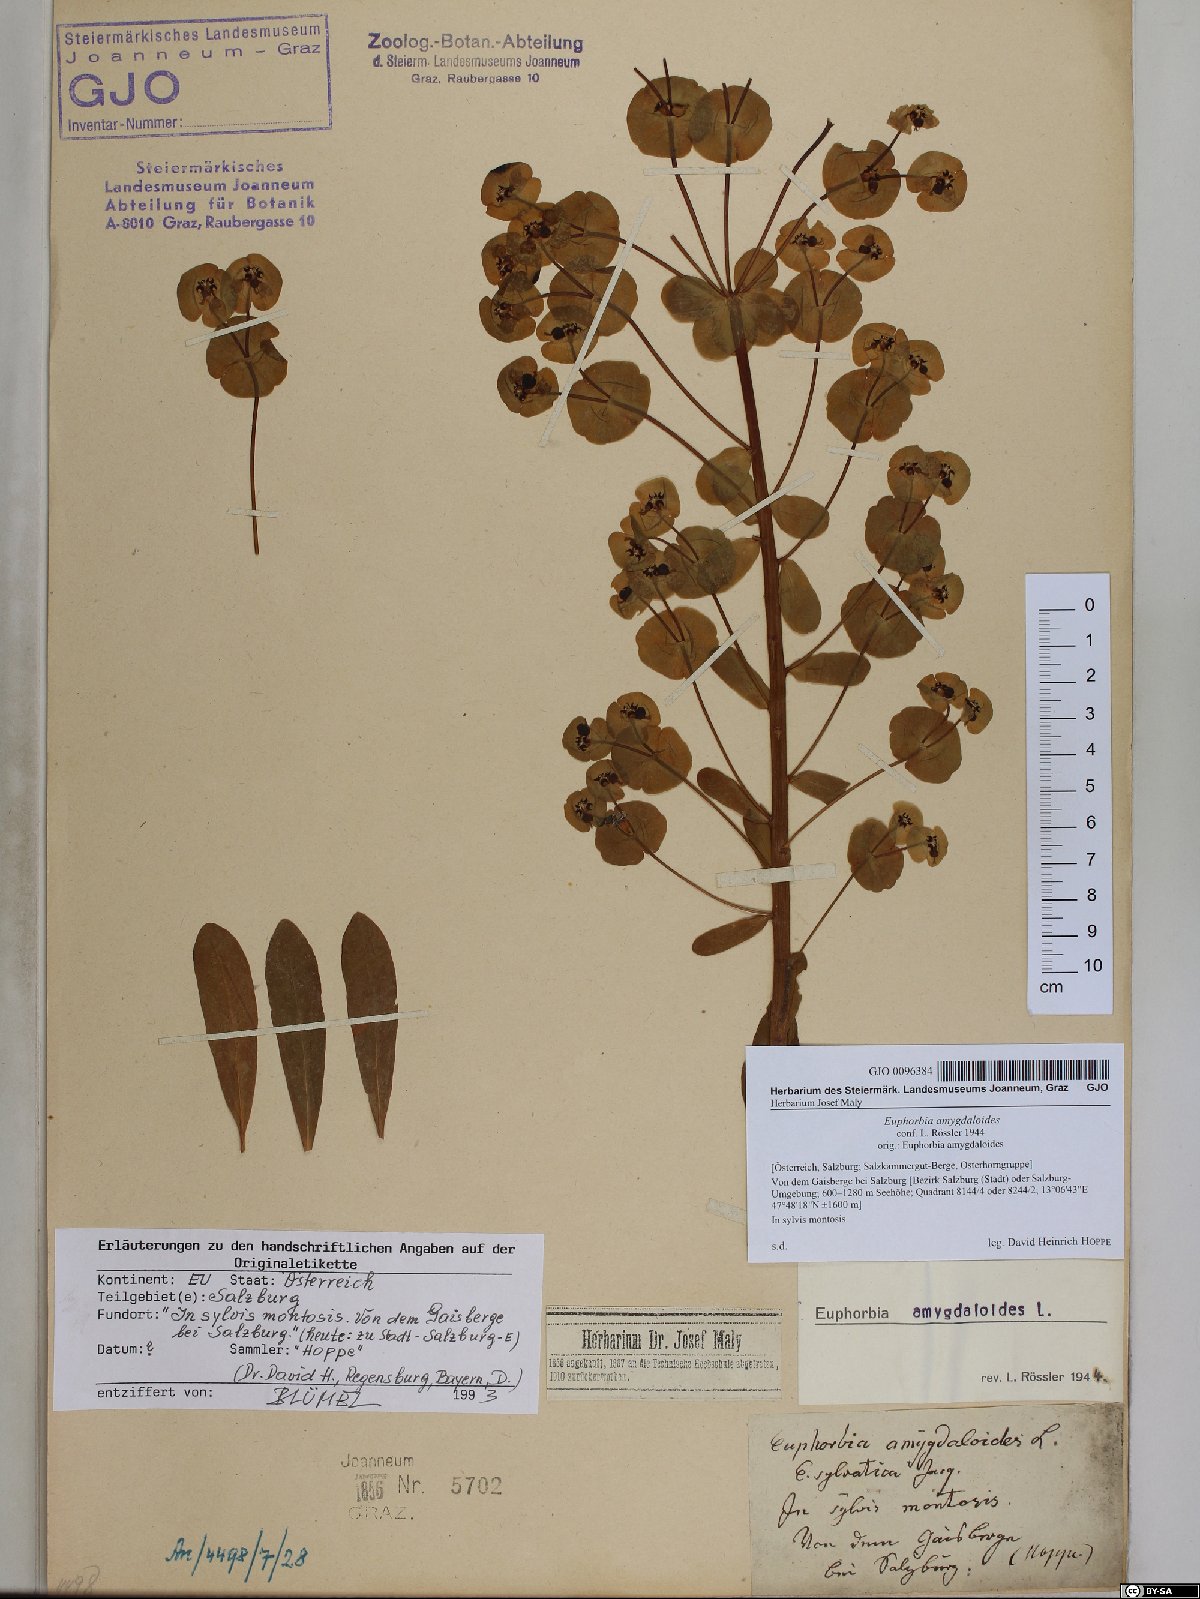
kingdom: Plantae
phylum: Tracheophyta
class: Magnoliopsida
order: Malpighiales
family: Euphorbiaceae
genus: Euphorbia
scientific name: Euphorbia amygdaloides
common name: Wood spurge
